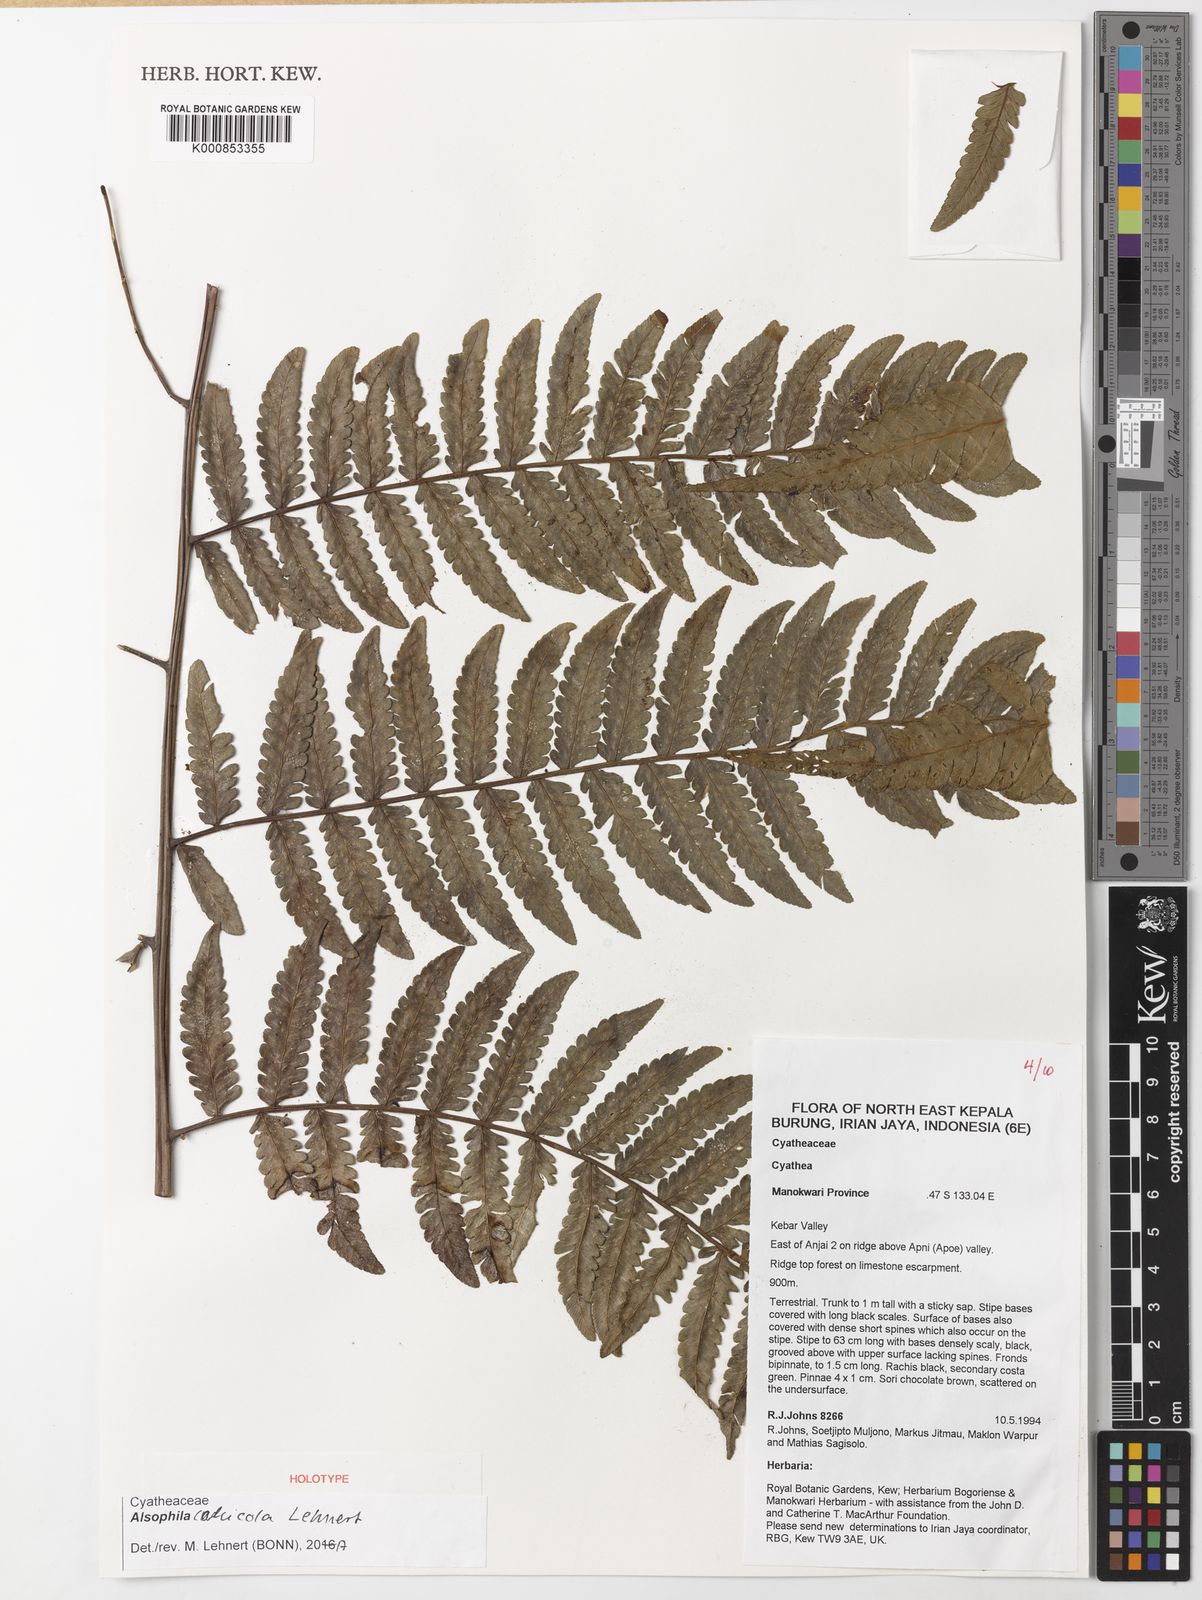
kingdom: Plantae
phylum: Tracheophyta
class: Polypodiopsida
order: Cyatheales
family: Cyatheaceae
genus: Alsophila
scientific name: Alsophila calcicola
